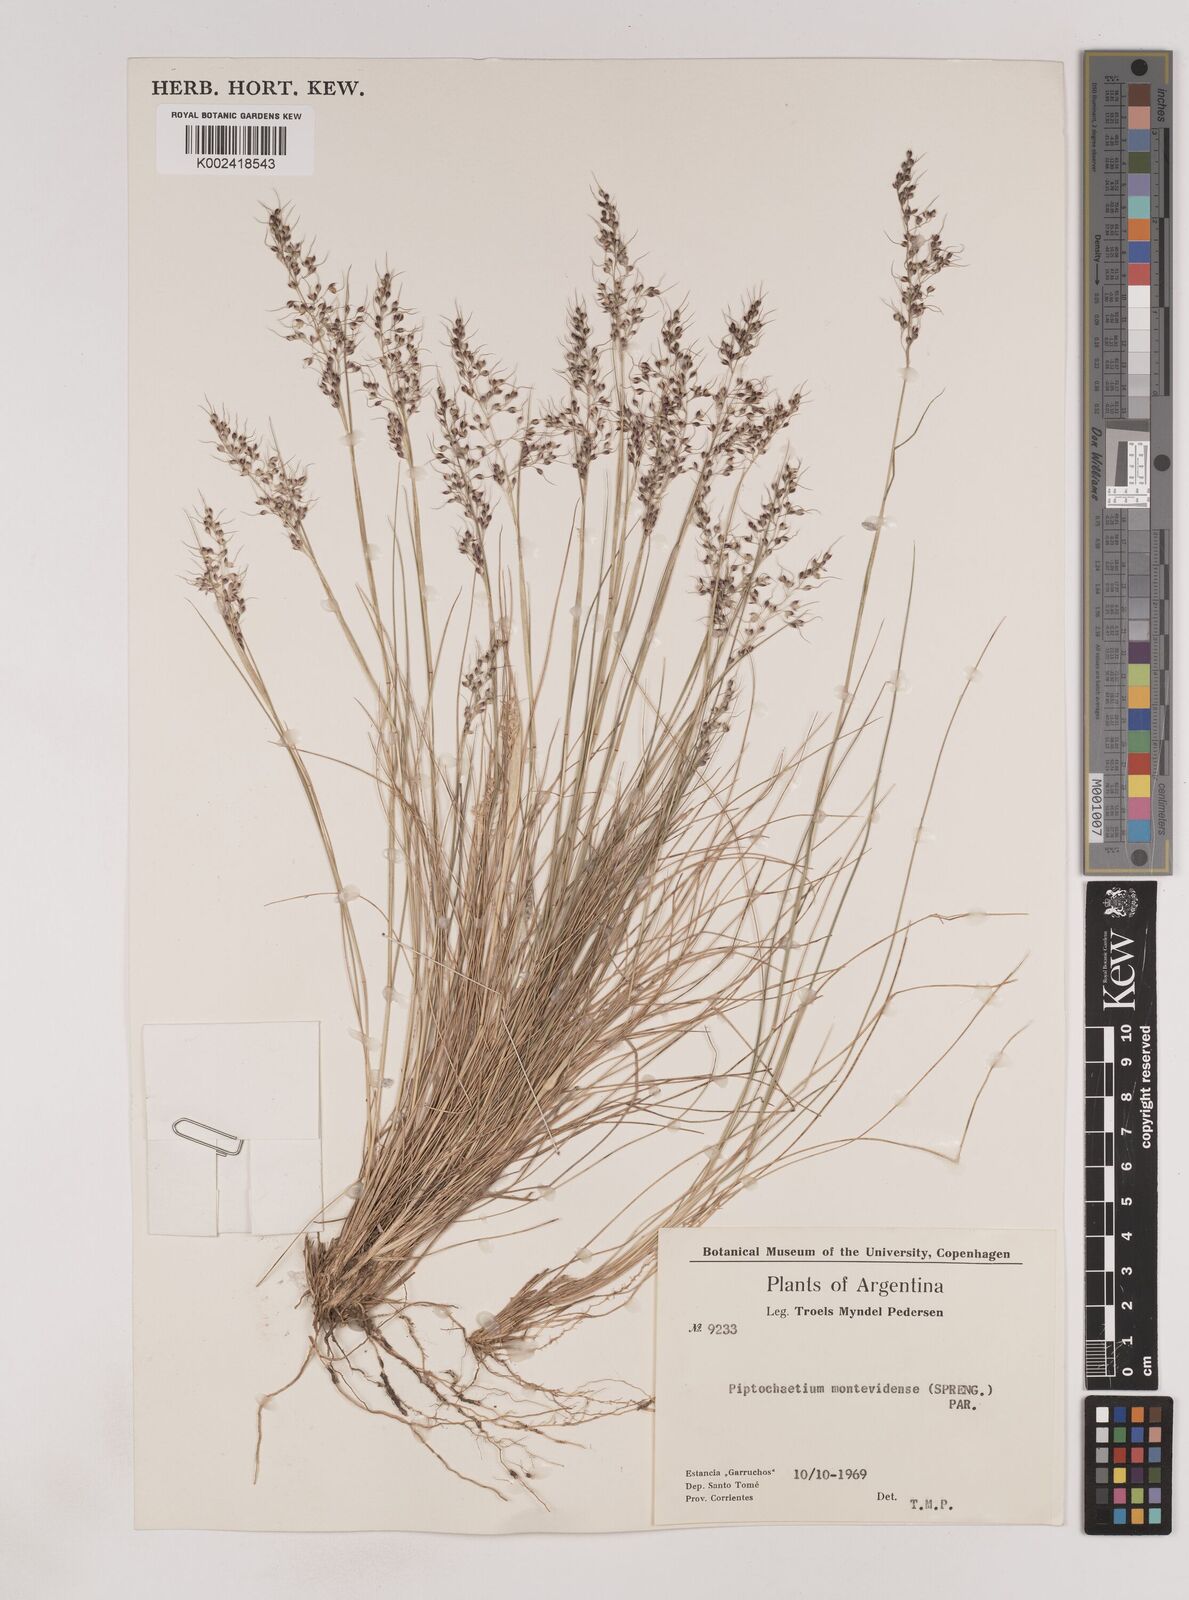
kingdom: Plantae
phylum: Tracheophyta
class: Liliopsida
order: Poales
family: Poaceae
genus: Piptochaetium
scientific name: Piptochaetium montevidense
